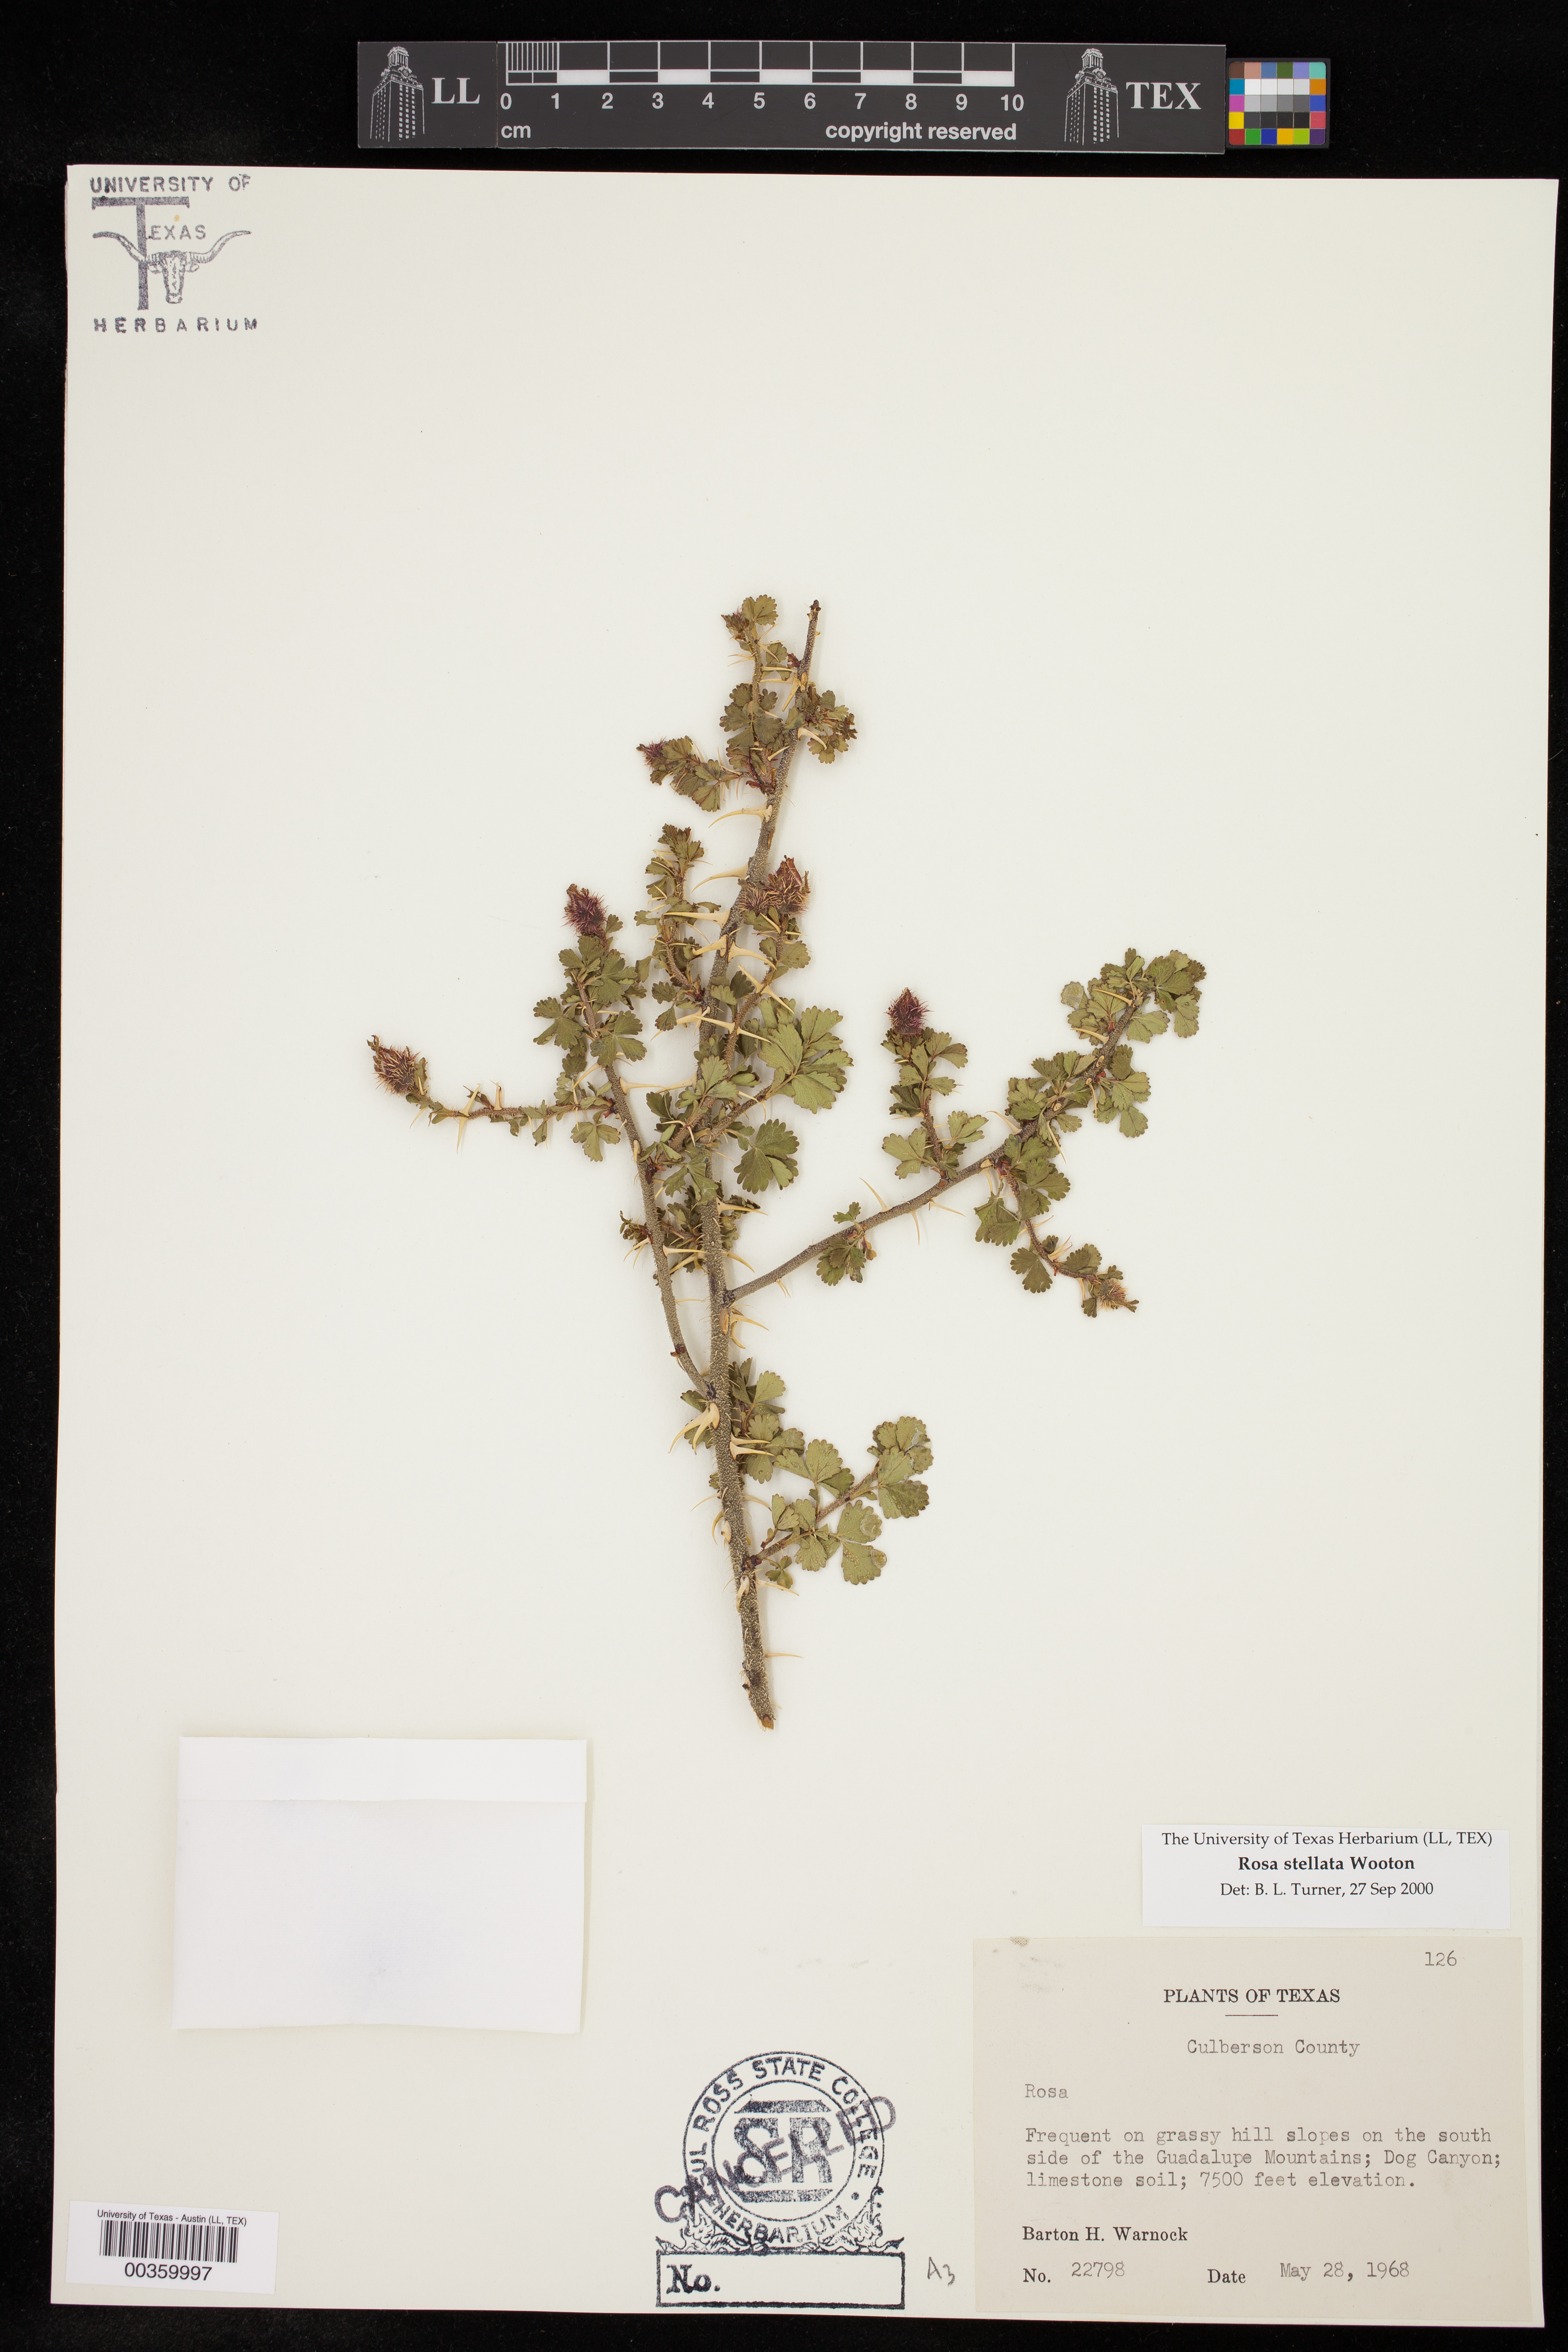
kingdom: Plantae
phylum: Tracheophyta
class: Magnoliopsida
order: Rosales
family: Rosaceae
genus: Rosa
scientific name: Rosa stellata
